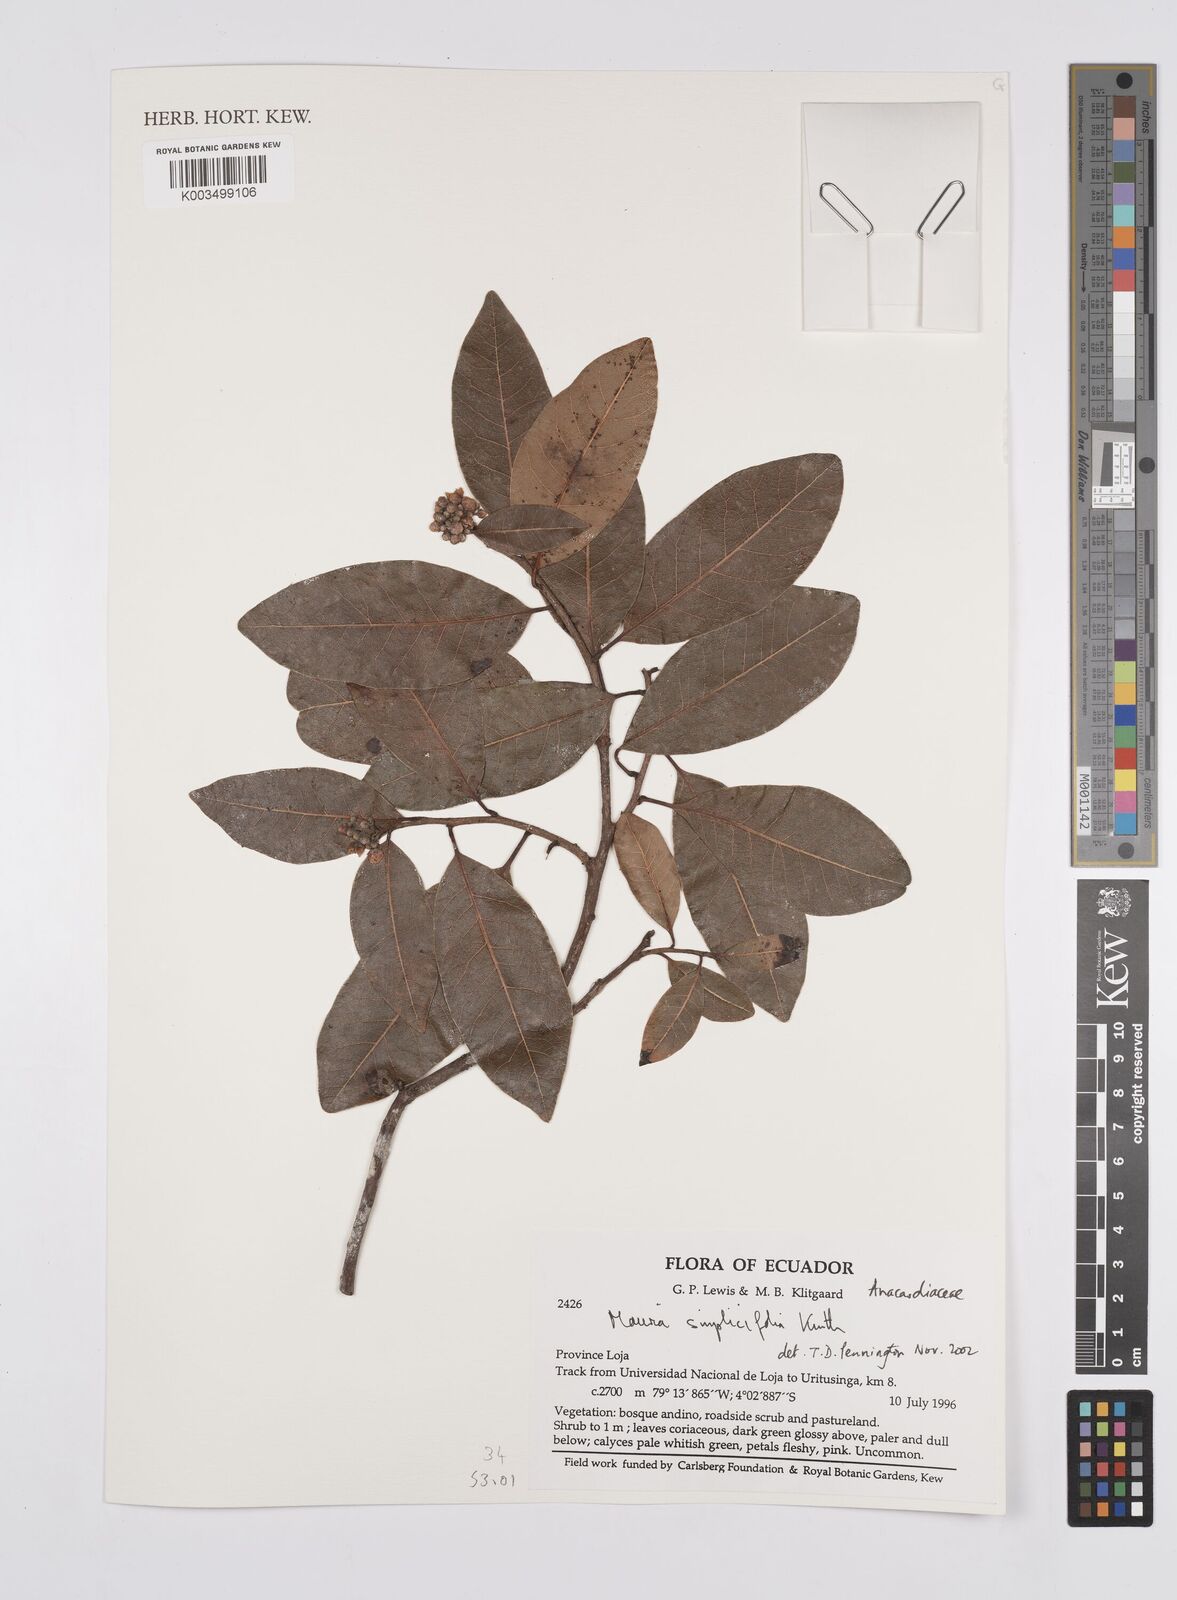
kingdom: Plantae
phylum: Tracheophyta
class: Magnoliopsida
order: Sapindales
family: Anacardiaceae
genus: Mauria
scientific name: Mauria simplicifolia
